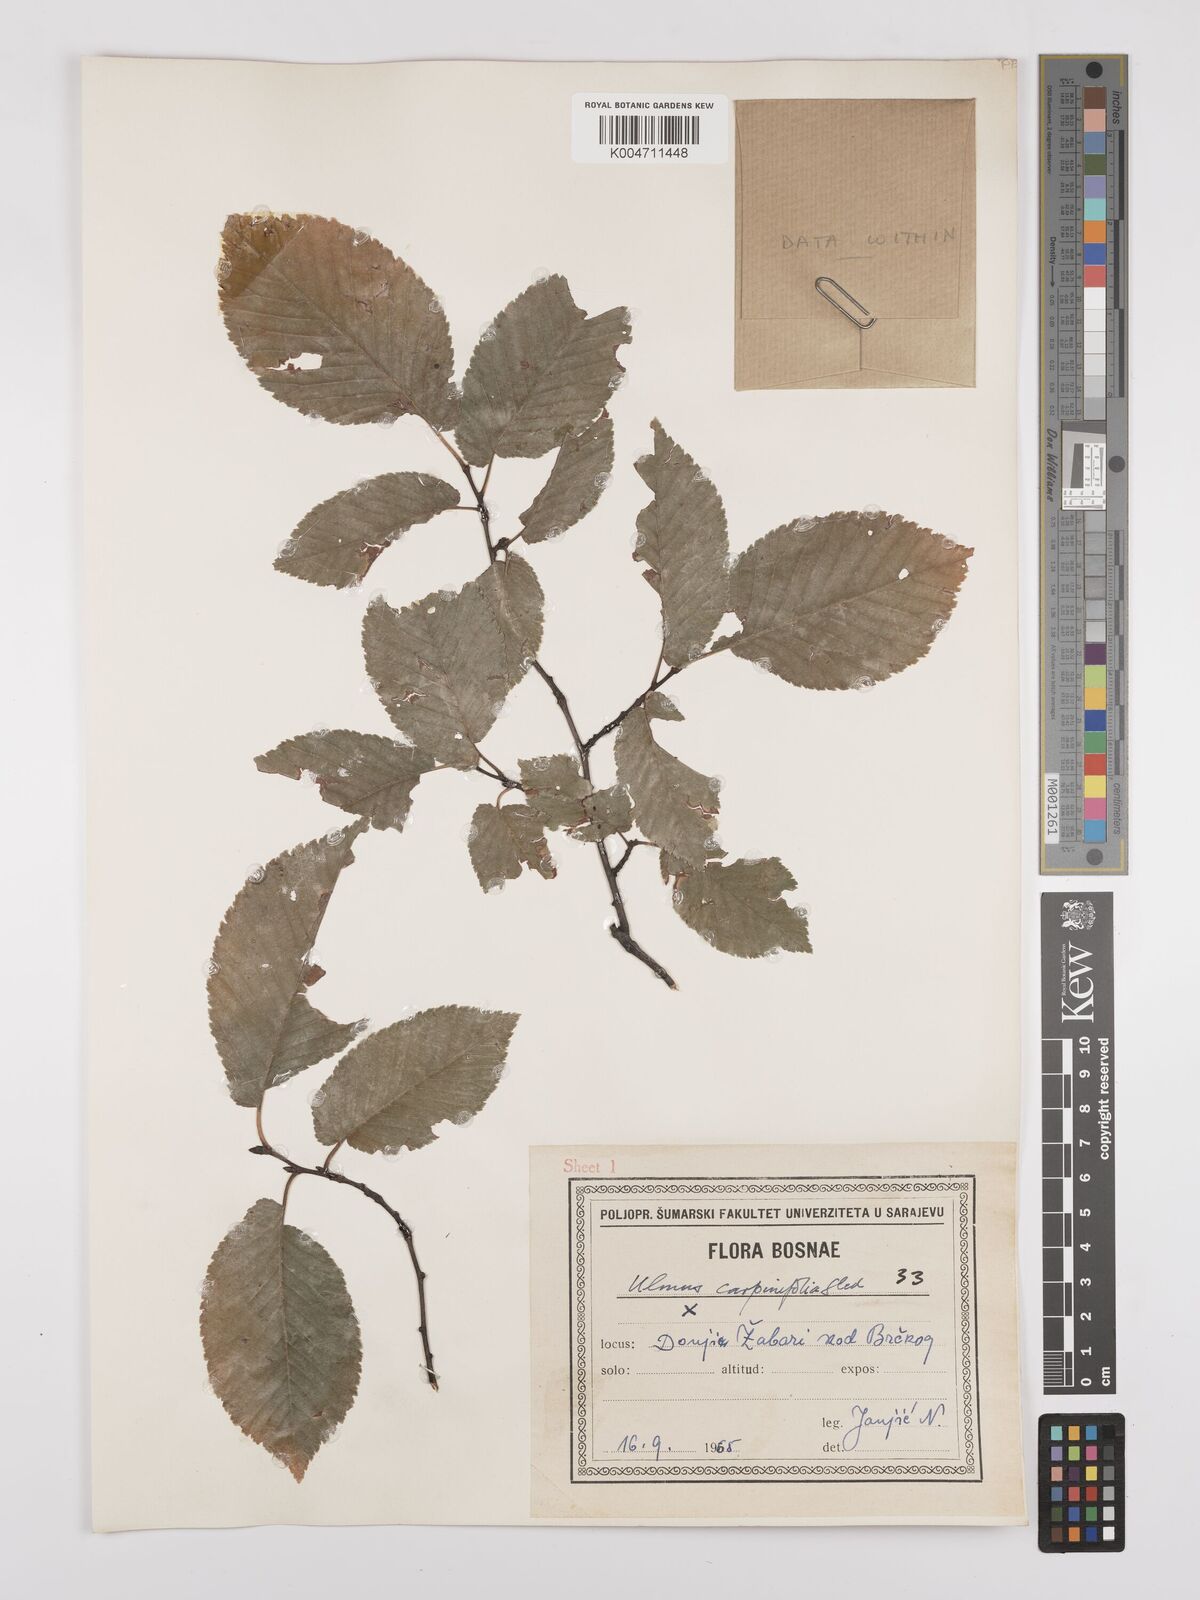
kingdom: Plantae
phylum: Tracheophyta
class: Magnoliopsida
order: Rosales
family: Ulmaceae
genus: Ulmus
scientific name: Ulmus minor
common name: Small-leaved elm
